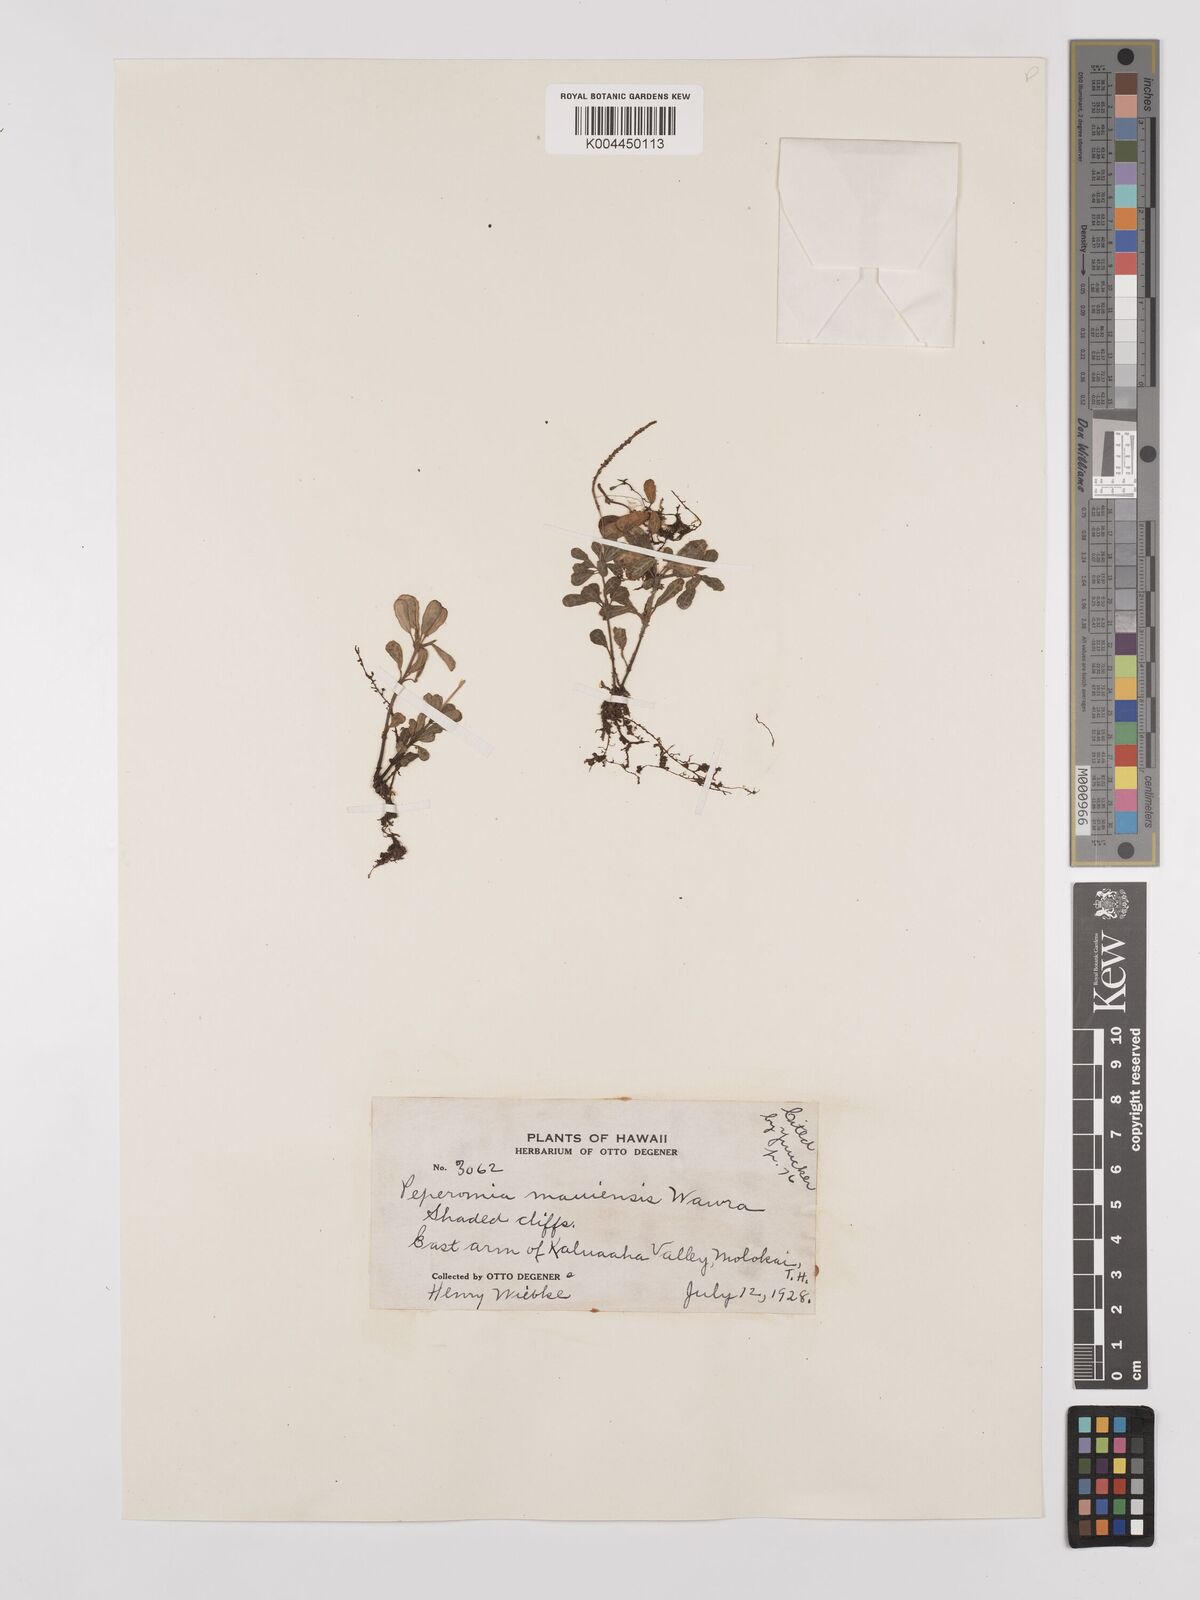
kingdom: Plantae
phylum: Tracheophyta
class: Magnoliopsida
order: Piperales
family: Piperaceae
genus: Peperomia
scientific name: Peperomia mauiensis
